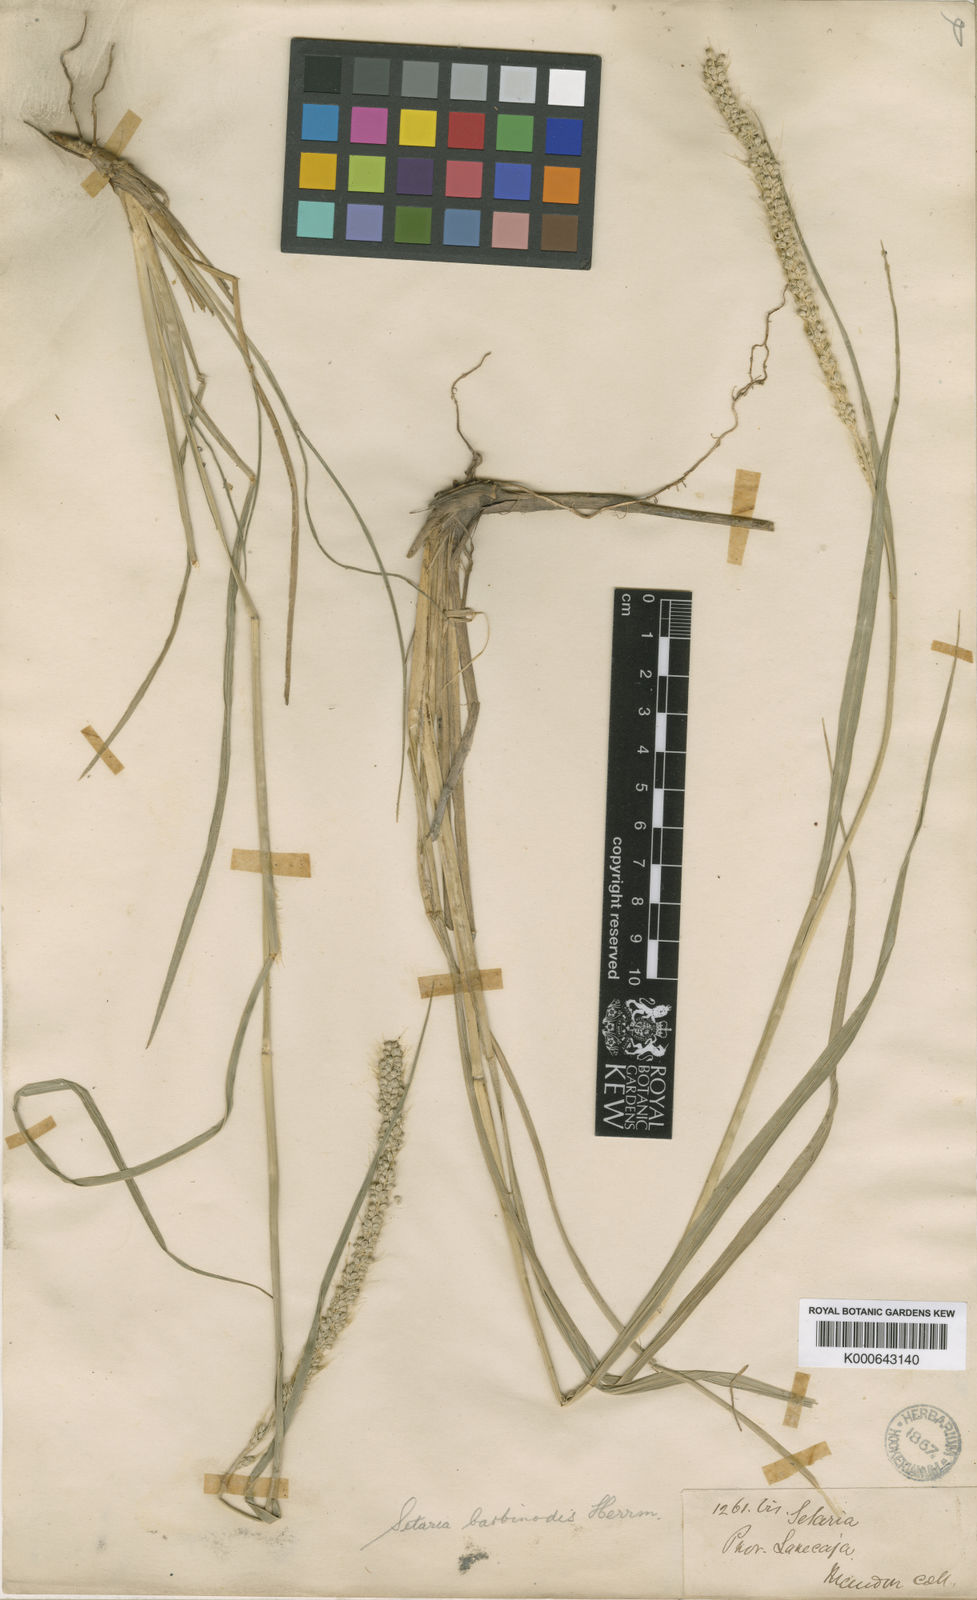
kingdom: Plantae
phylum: Tracheophyta
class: Liliopsida
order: Poales
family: Poaceae
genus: Setaria
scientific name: Setaria barbinodis
